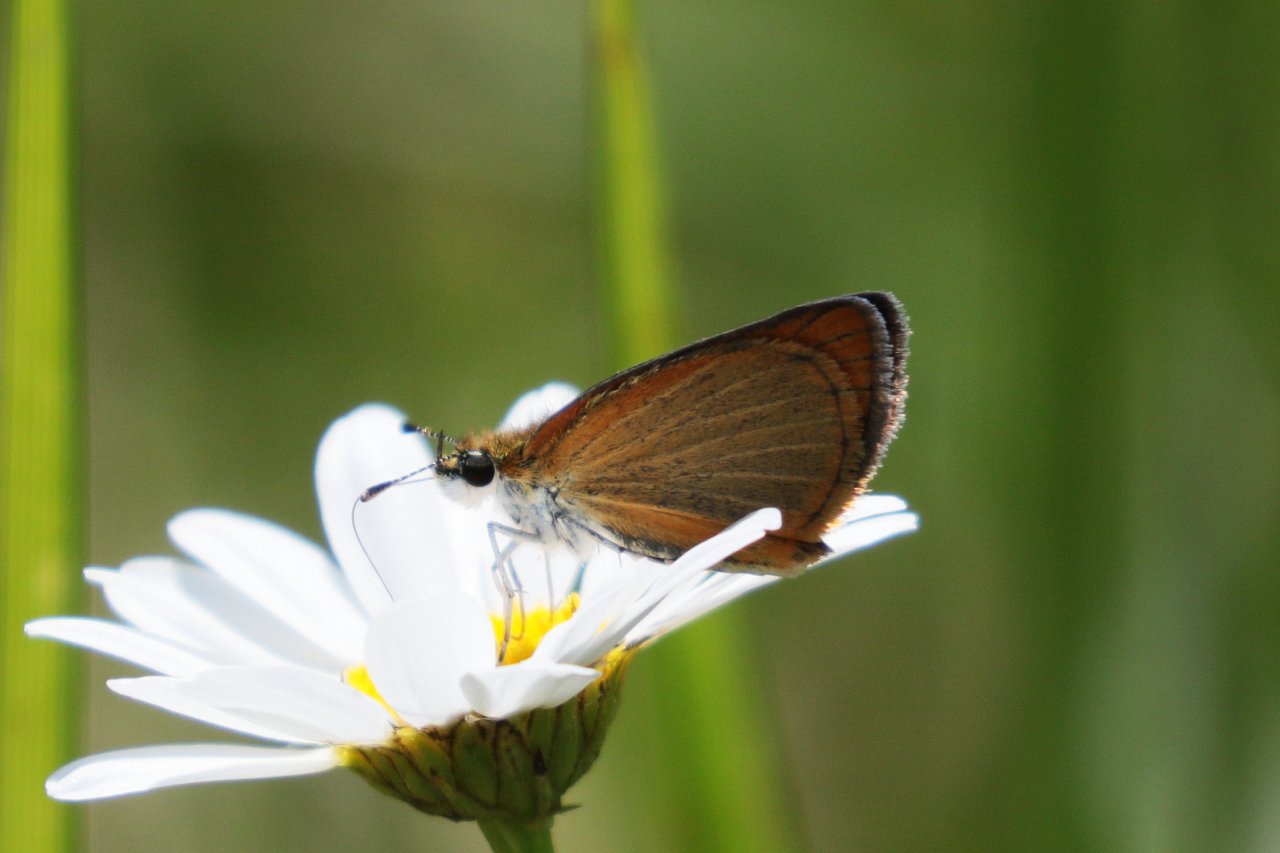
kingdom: Animalia
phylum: Arthropoda
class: Insecta
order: Lepidoptera
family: Hesperiidae
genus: Ancyloxypha
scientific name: Ancyloxypha numitor
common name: Least Skipper
